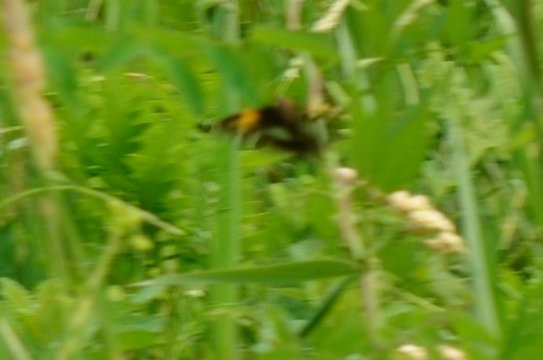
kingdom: Animalia
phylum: Arthropoda
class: Insecta
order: Lepidoptera
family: Hesperiidae
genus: Epargyreus
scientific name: Epargyreus clarus
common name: Silver-spotted Skipper
